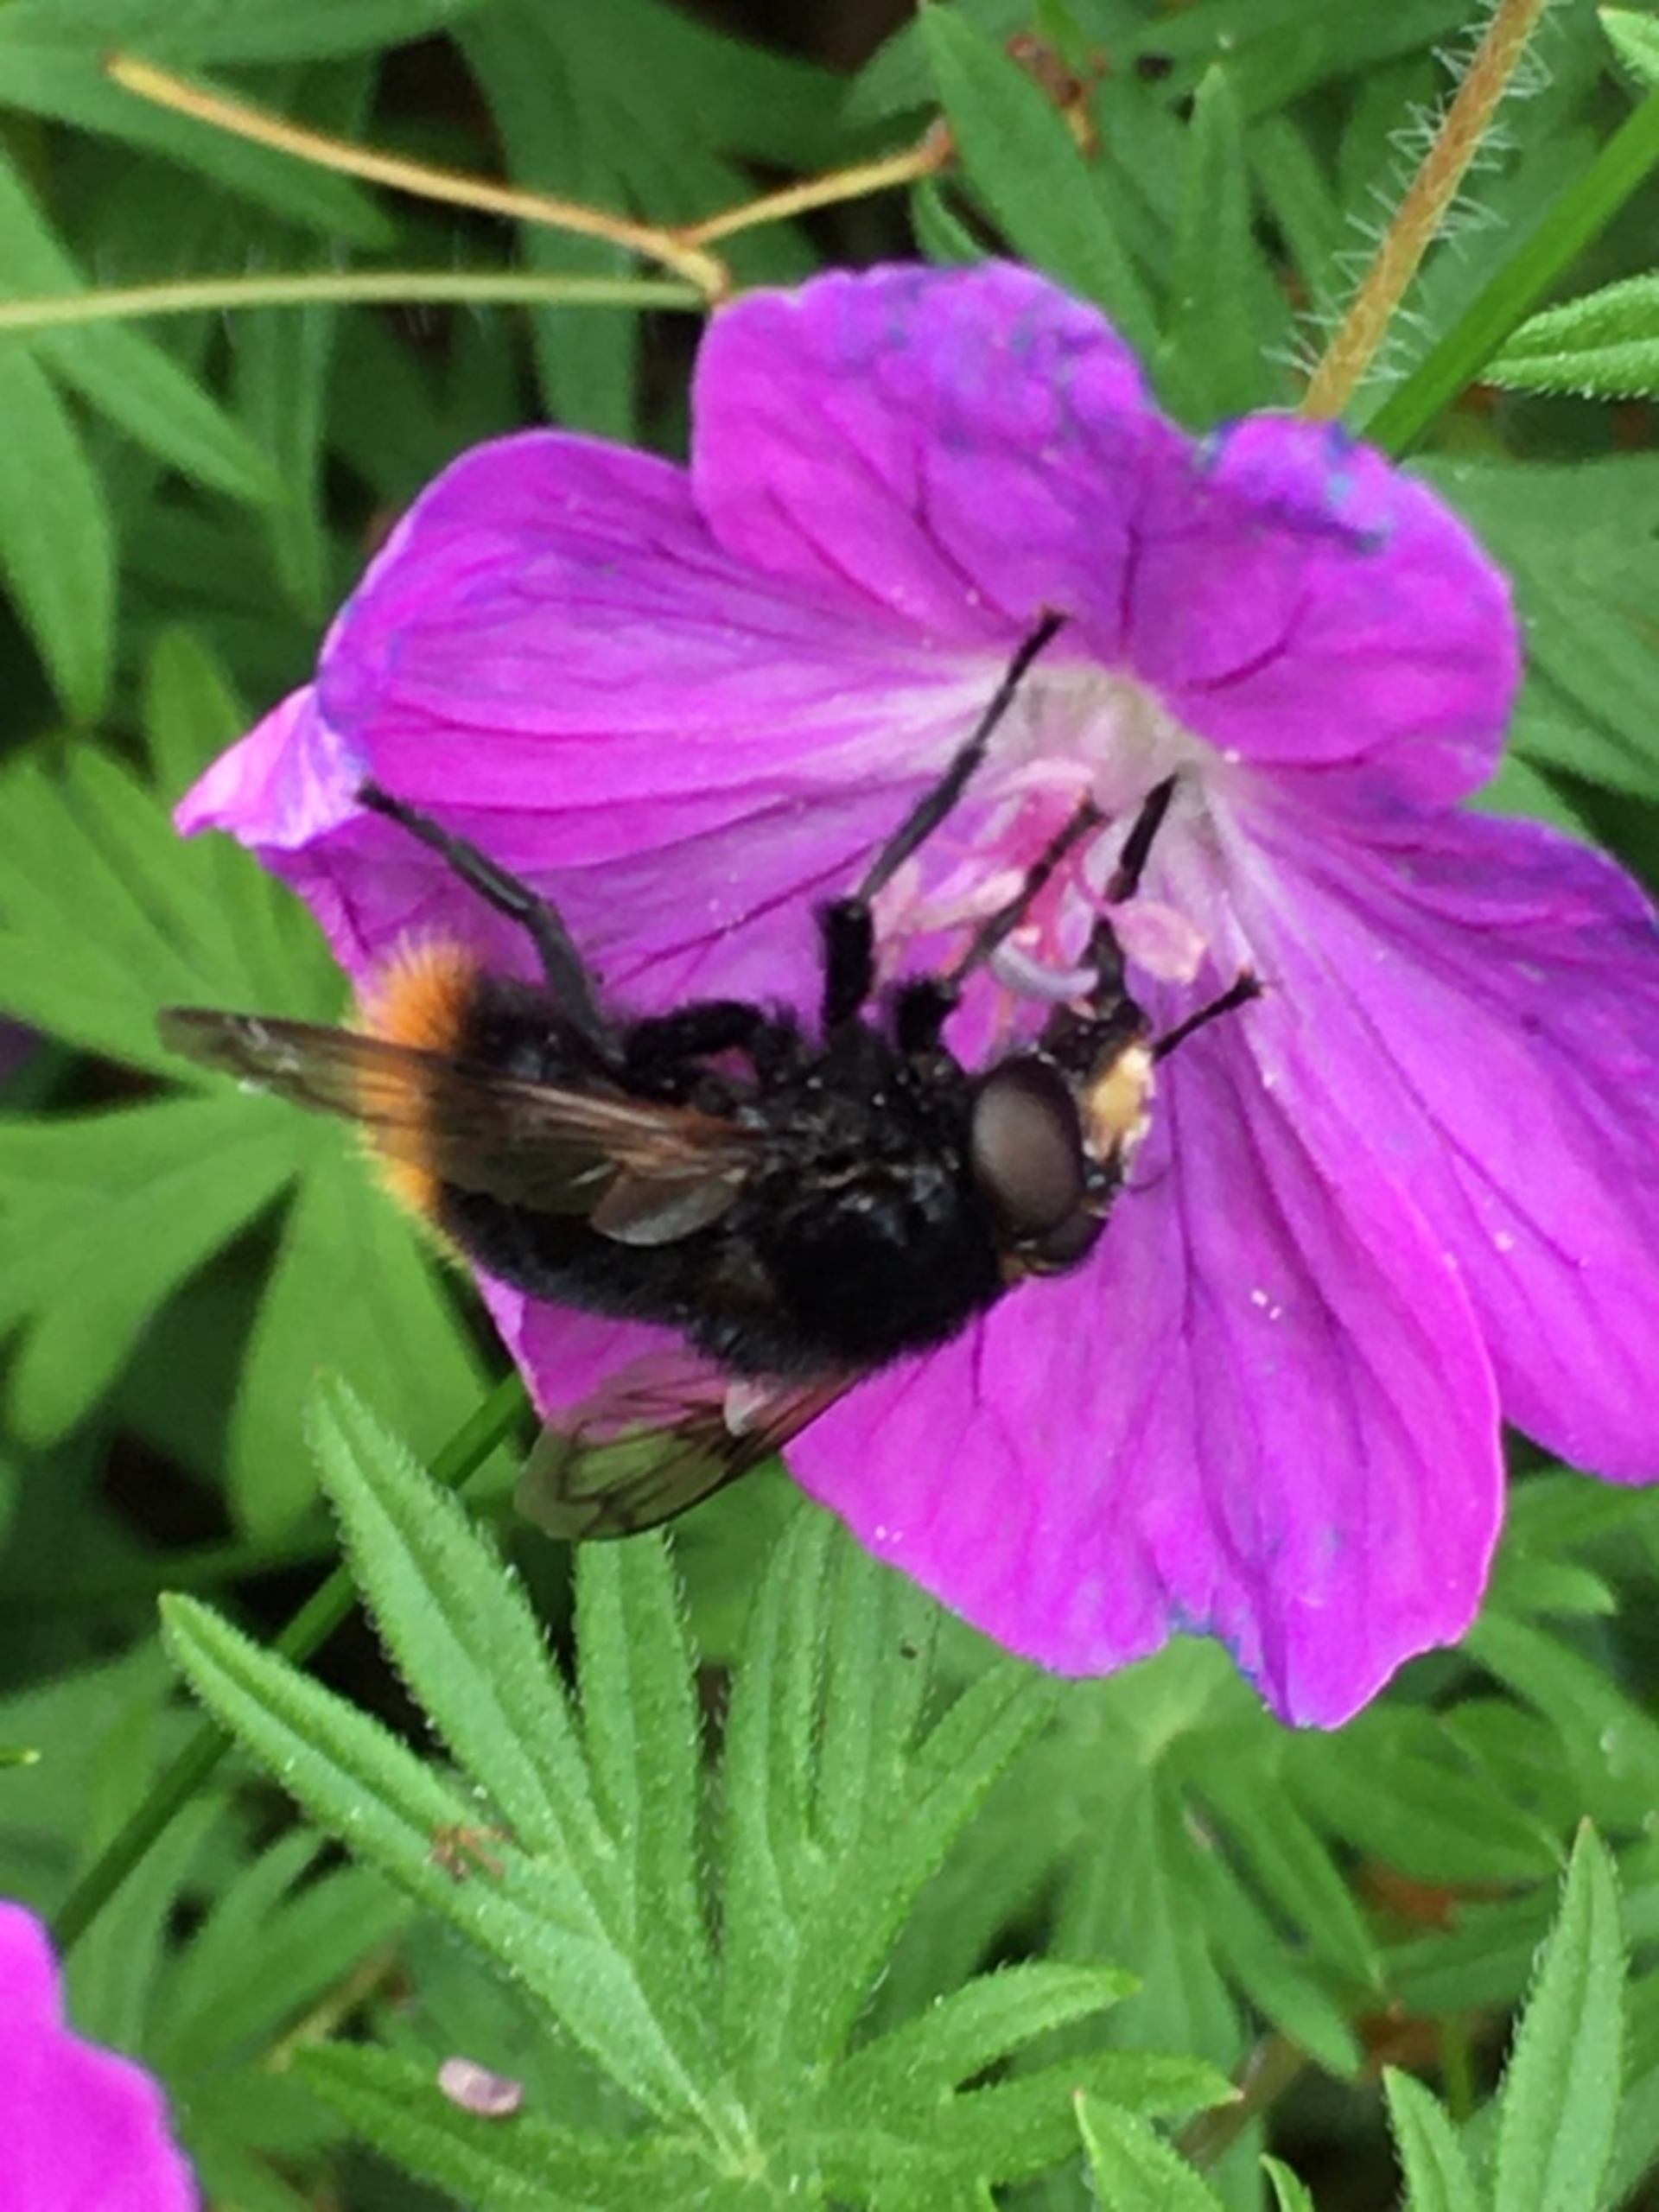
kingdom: Animalia
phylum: Arthropoda
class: Insecta
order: Diptera
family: Syrphidae
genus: Volucella
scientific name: Volucella bombylans
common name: Foranderlig humlesvirreflue
